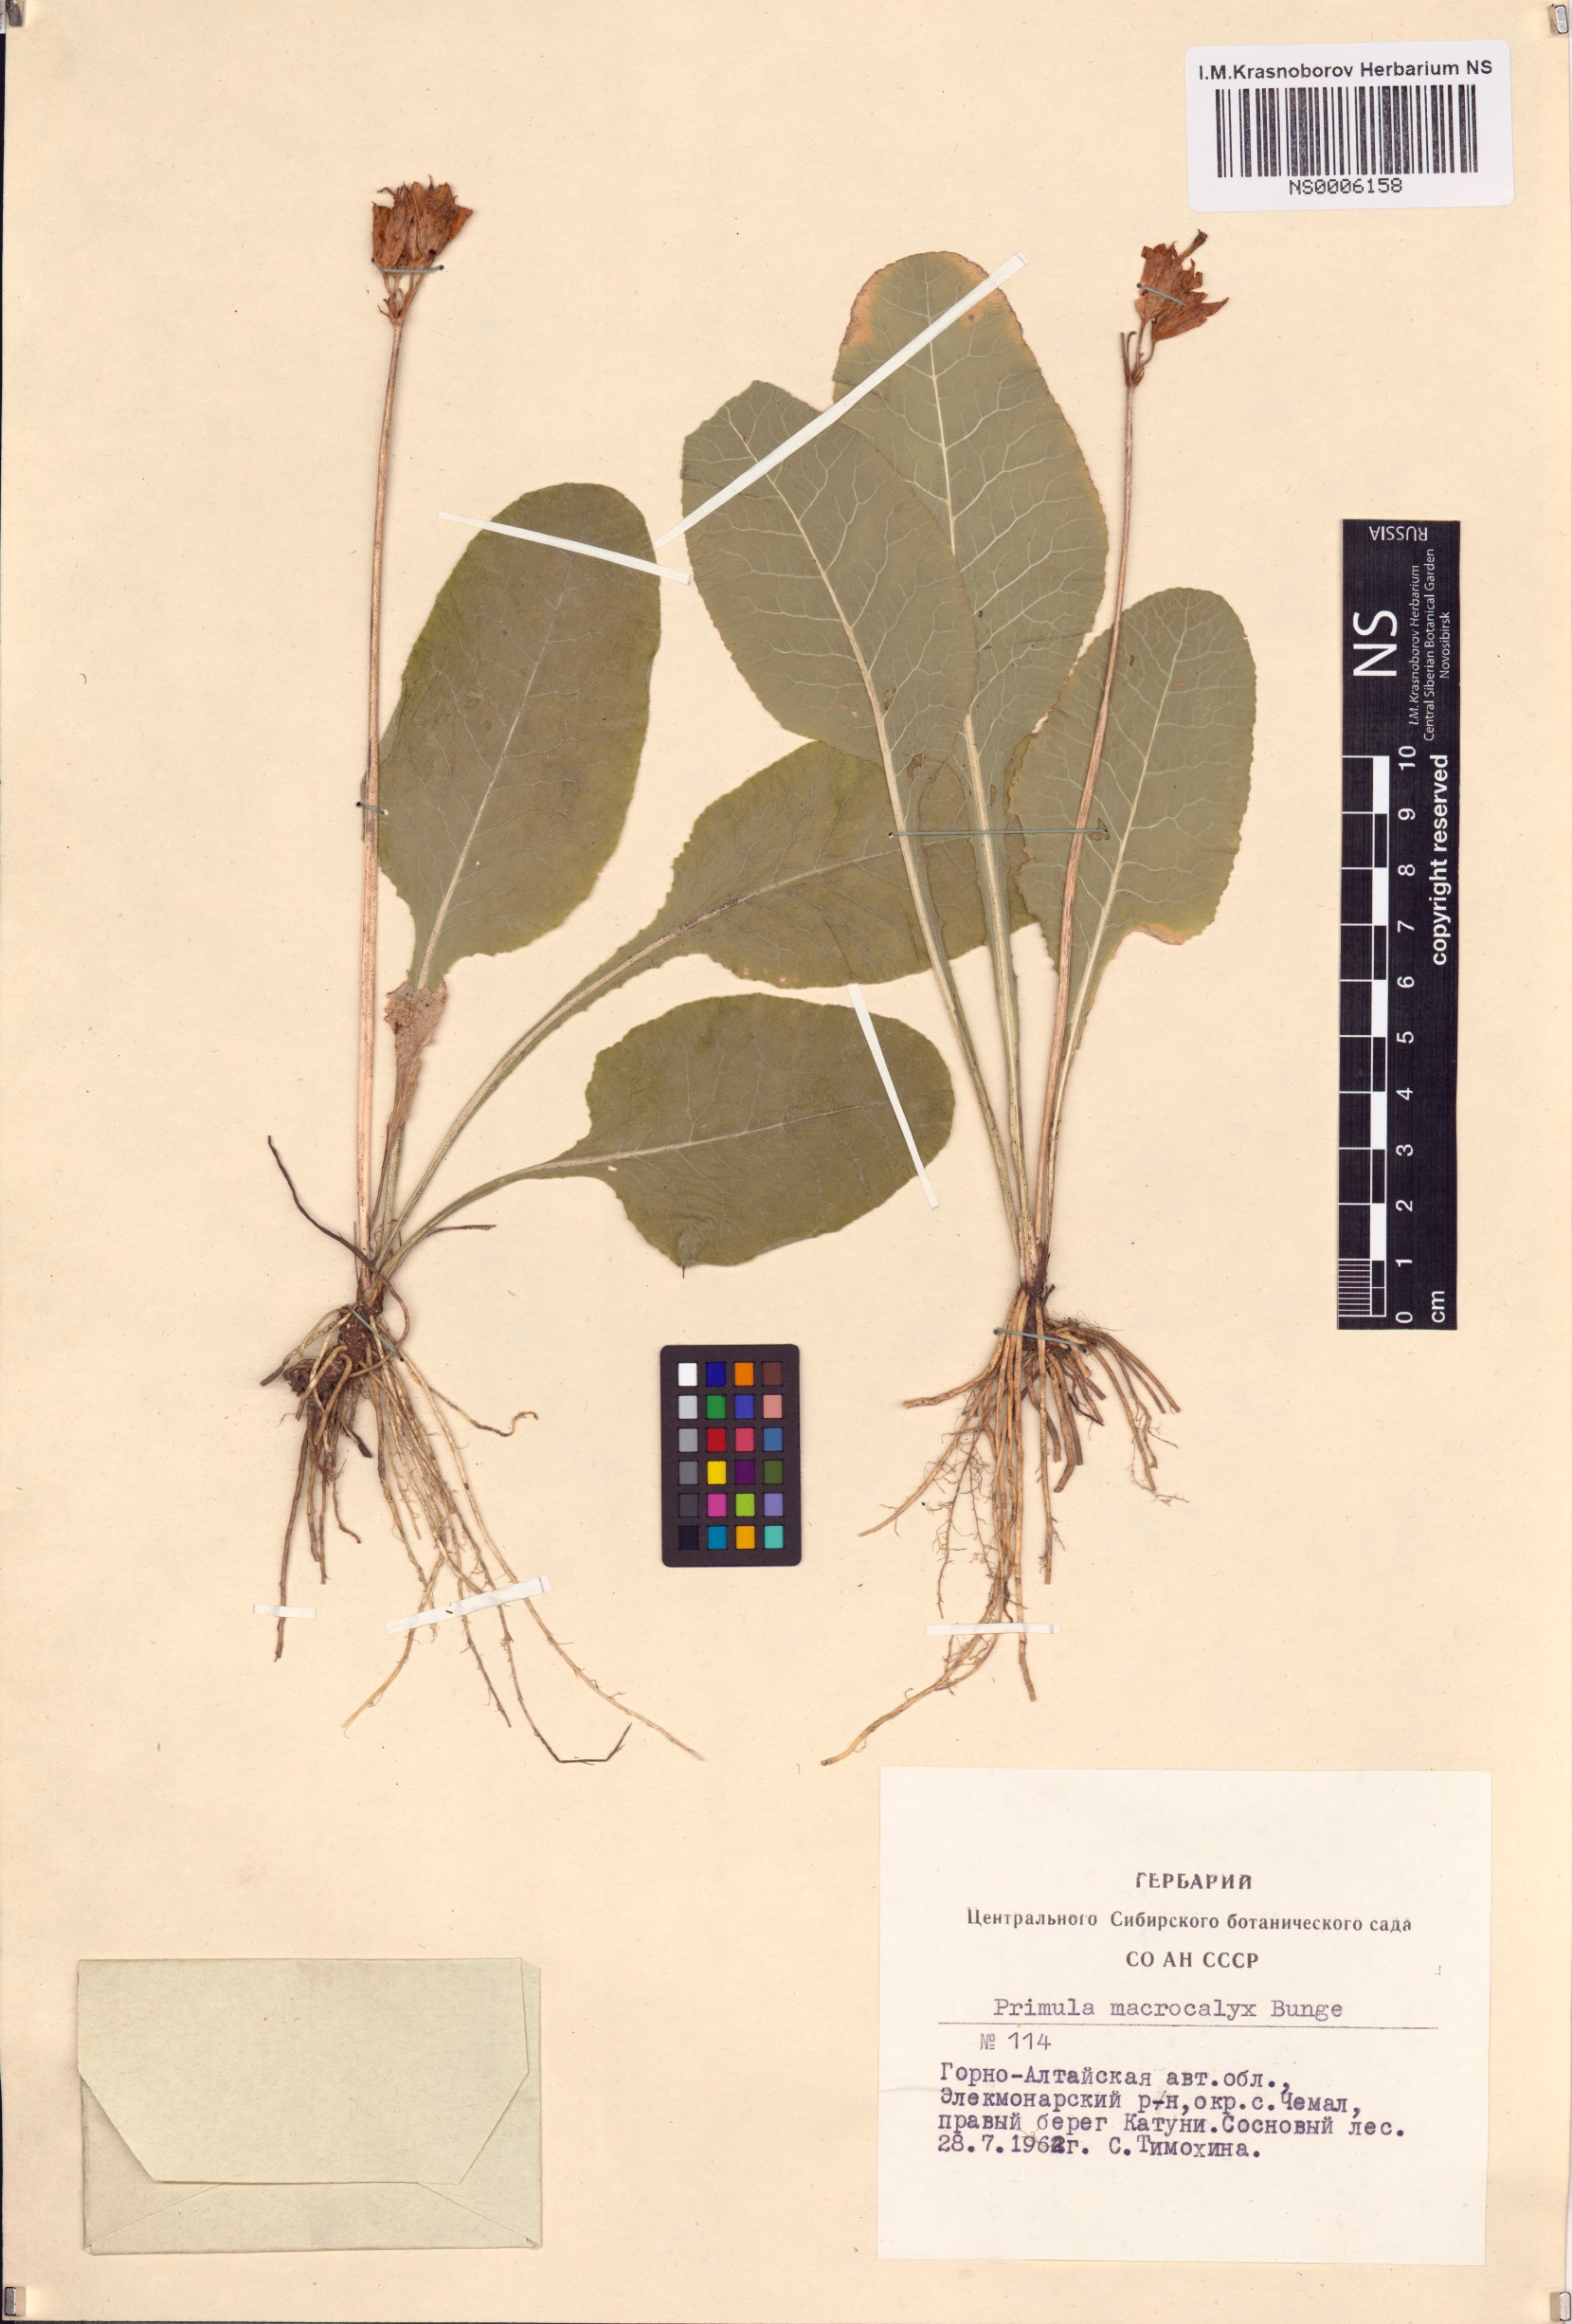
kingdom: Plantae
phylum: Tracheophyta
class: Magnoliopsida
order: Ericales
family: Primulaceae
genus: Primula
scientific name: Primula veris
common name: Cowslip
